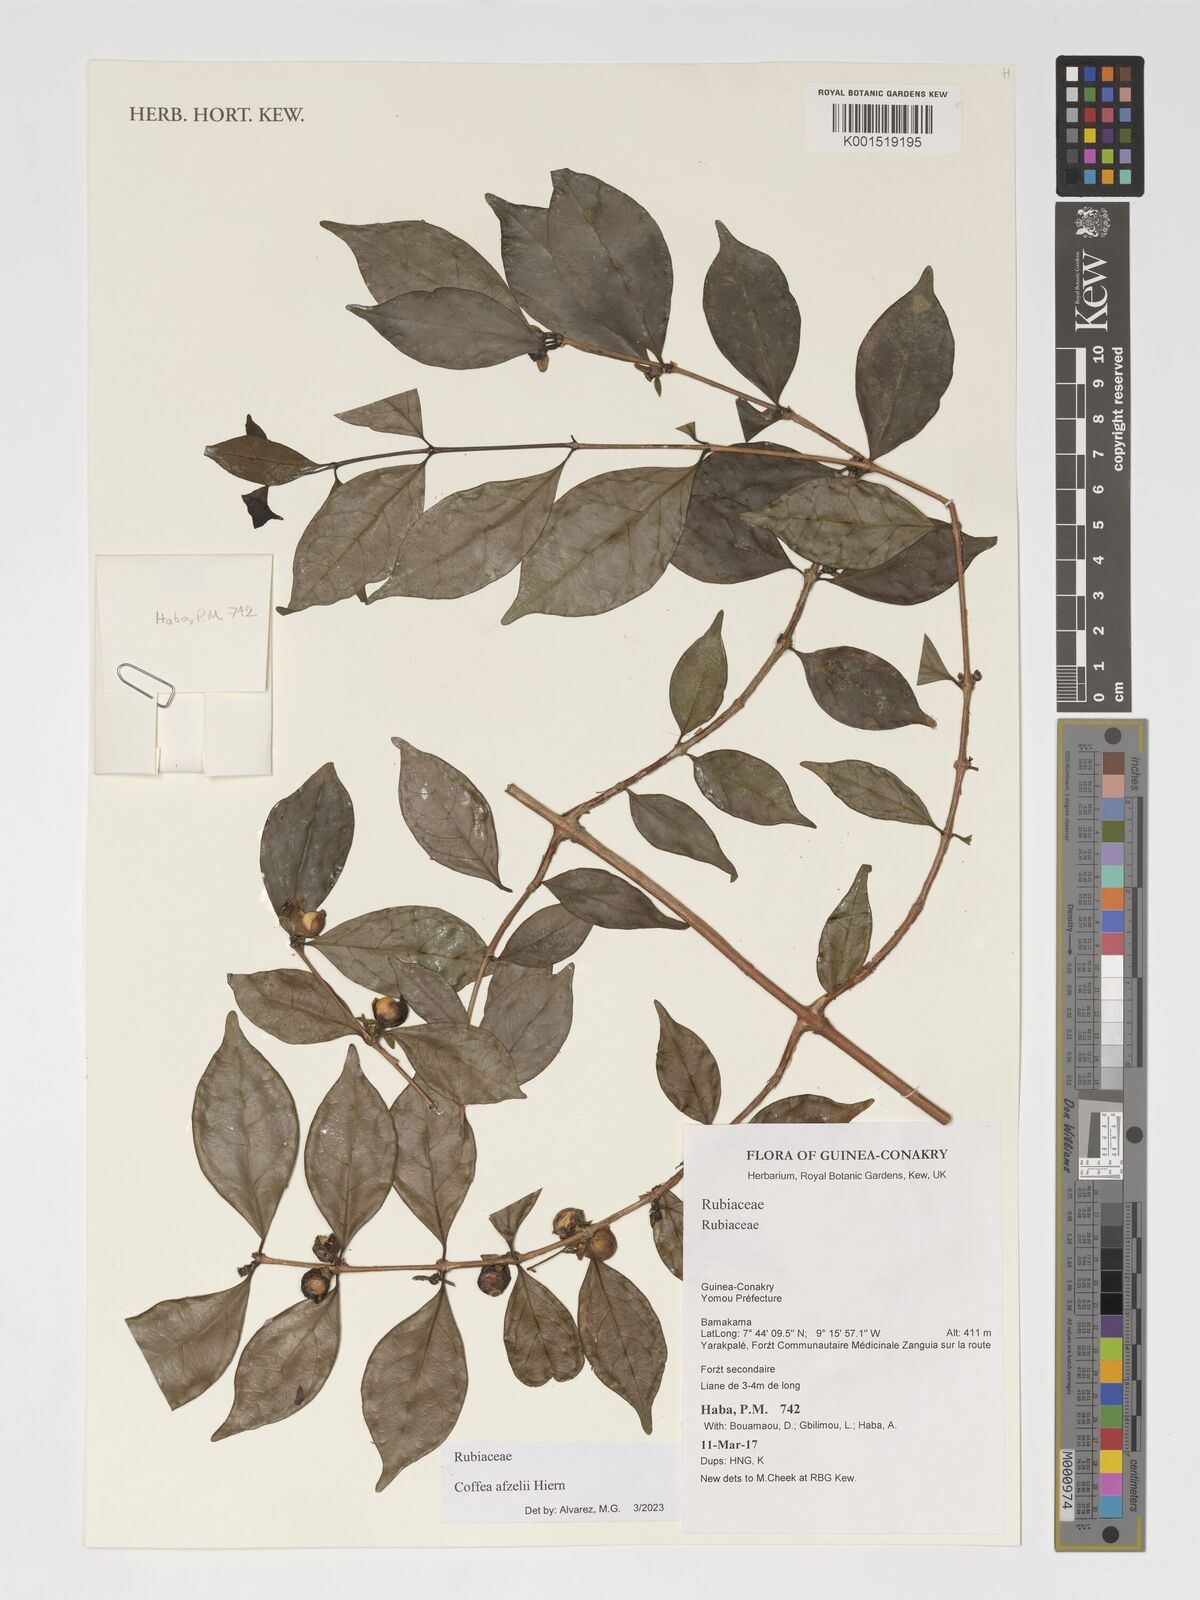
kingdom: Plantae
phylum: Tracheophyta
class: Magnoliopsida
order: Gentianales
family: Rubiaceae
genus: Argocoffeopsis
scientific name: Argocoffeopsis afzelii
